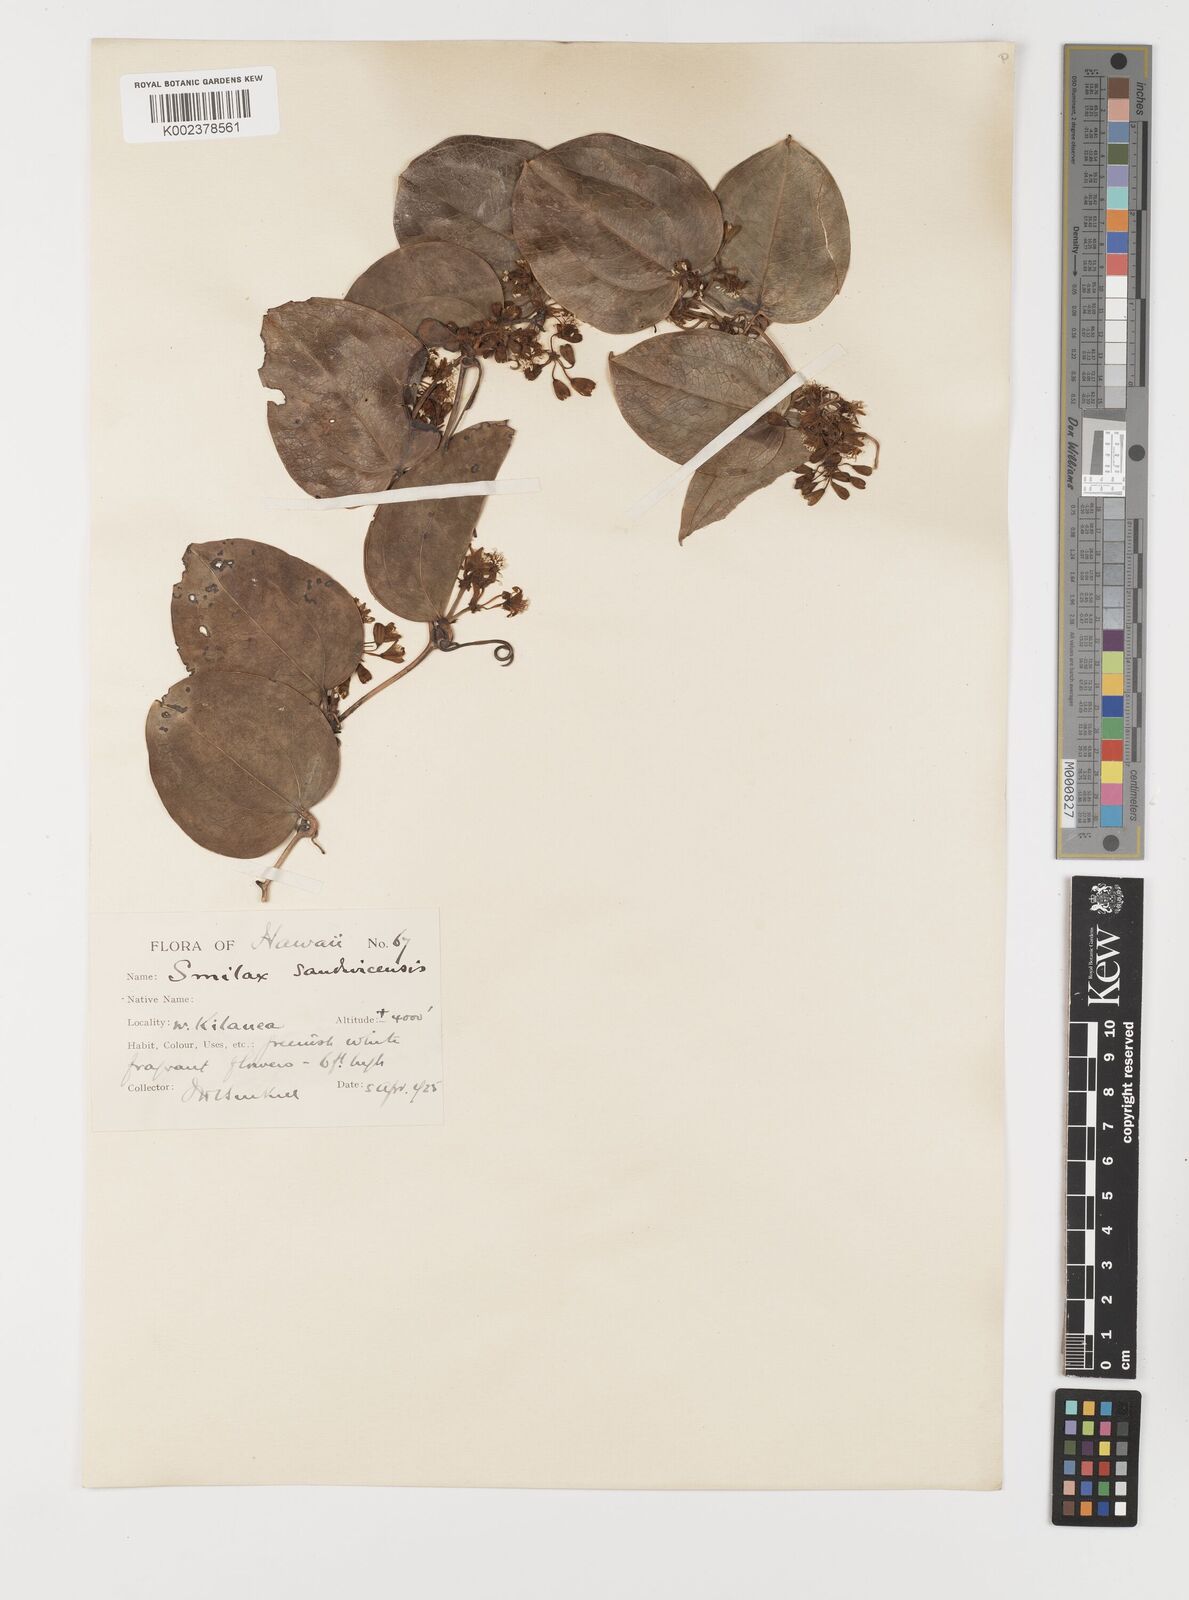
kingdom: Plantae
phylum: Tracheophyta
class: Liliopsida
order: Liliales
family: Smilacaceae
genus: Smilax
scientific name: Smilax melastomifolia
